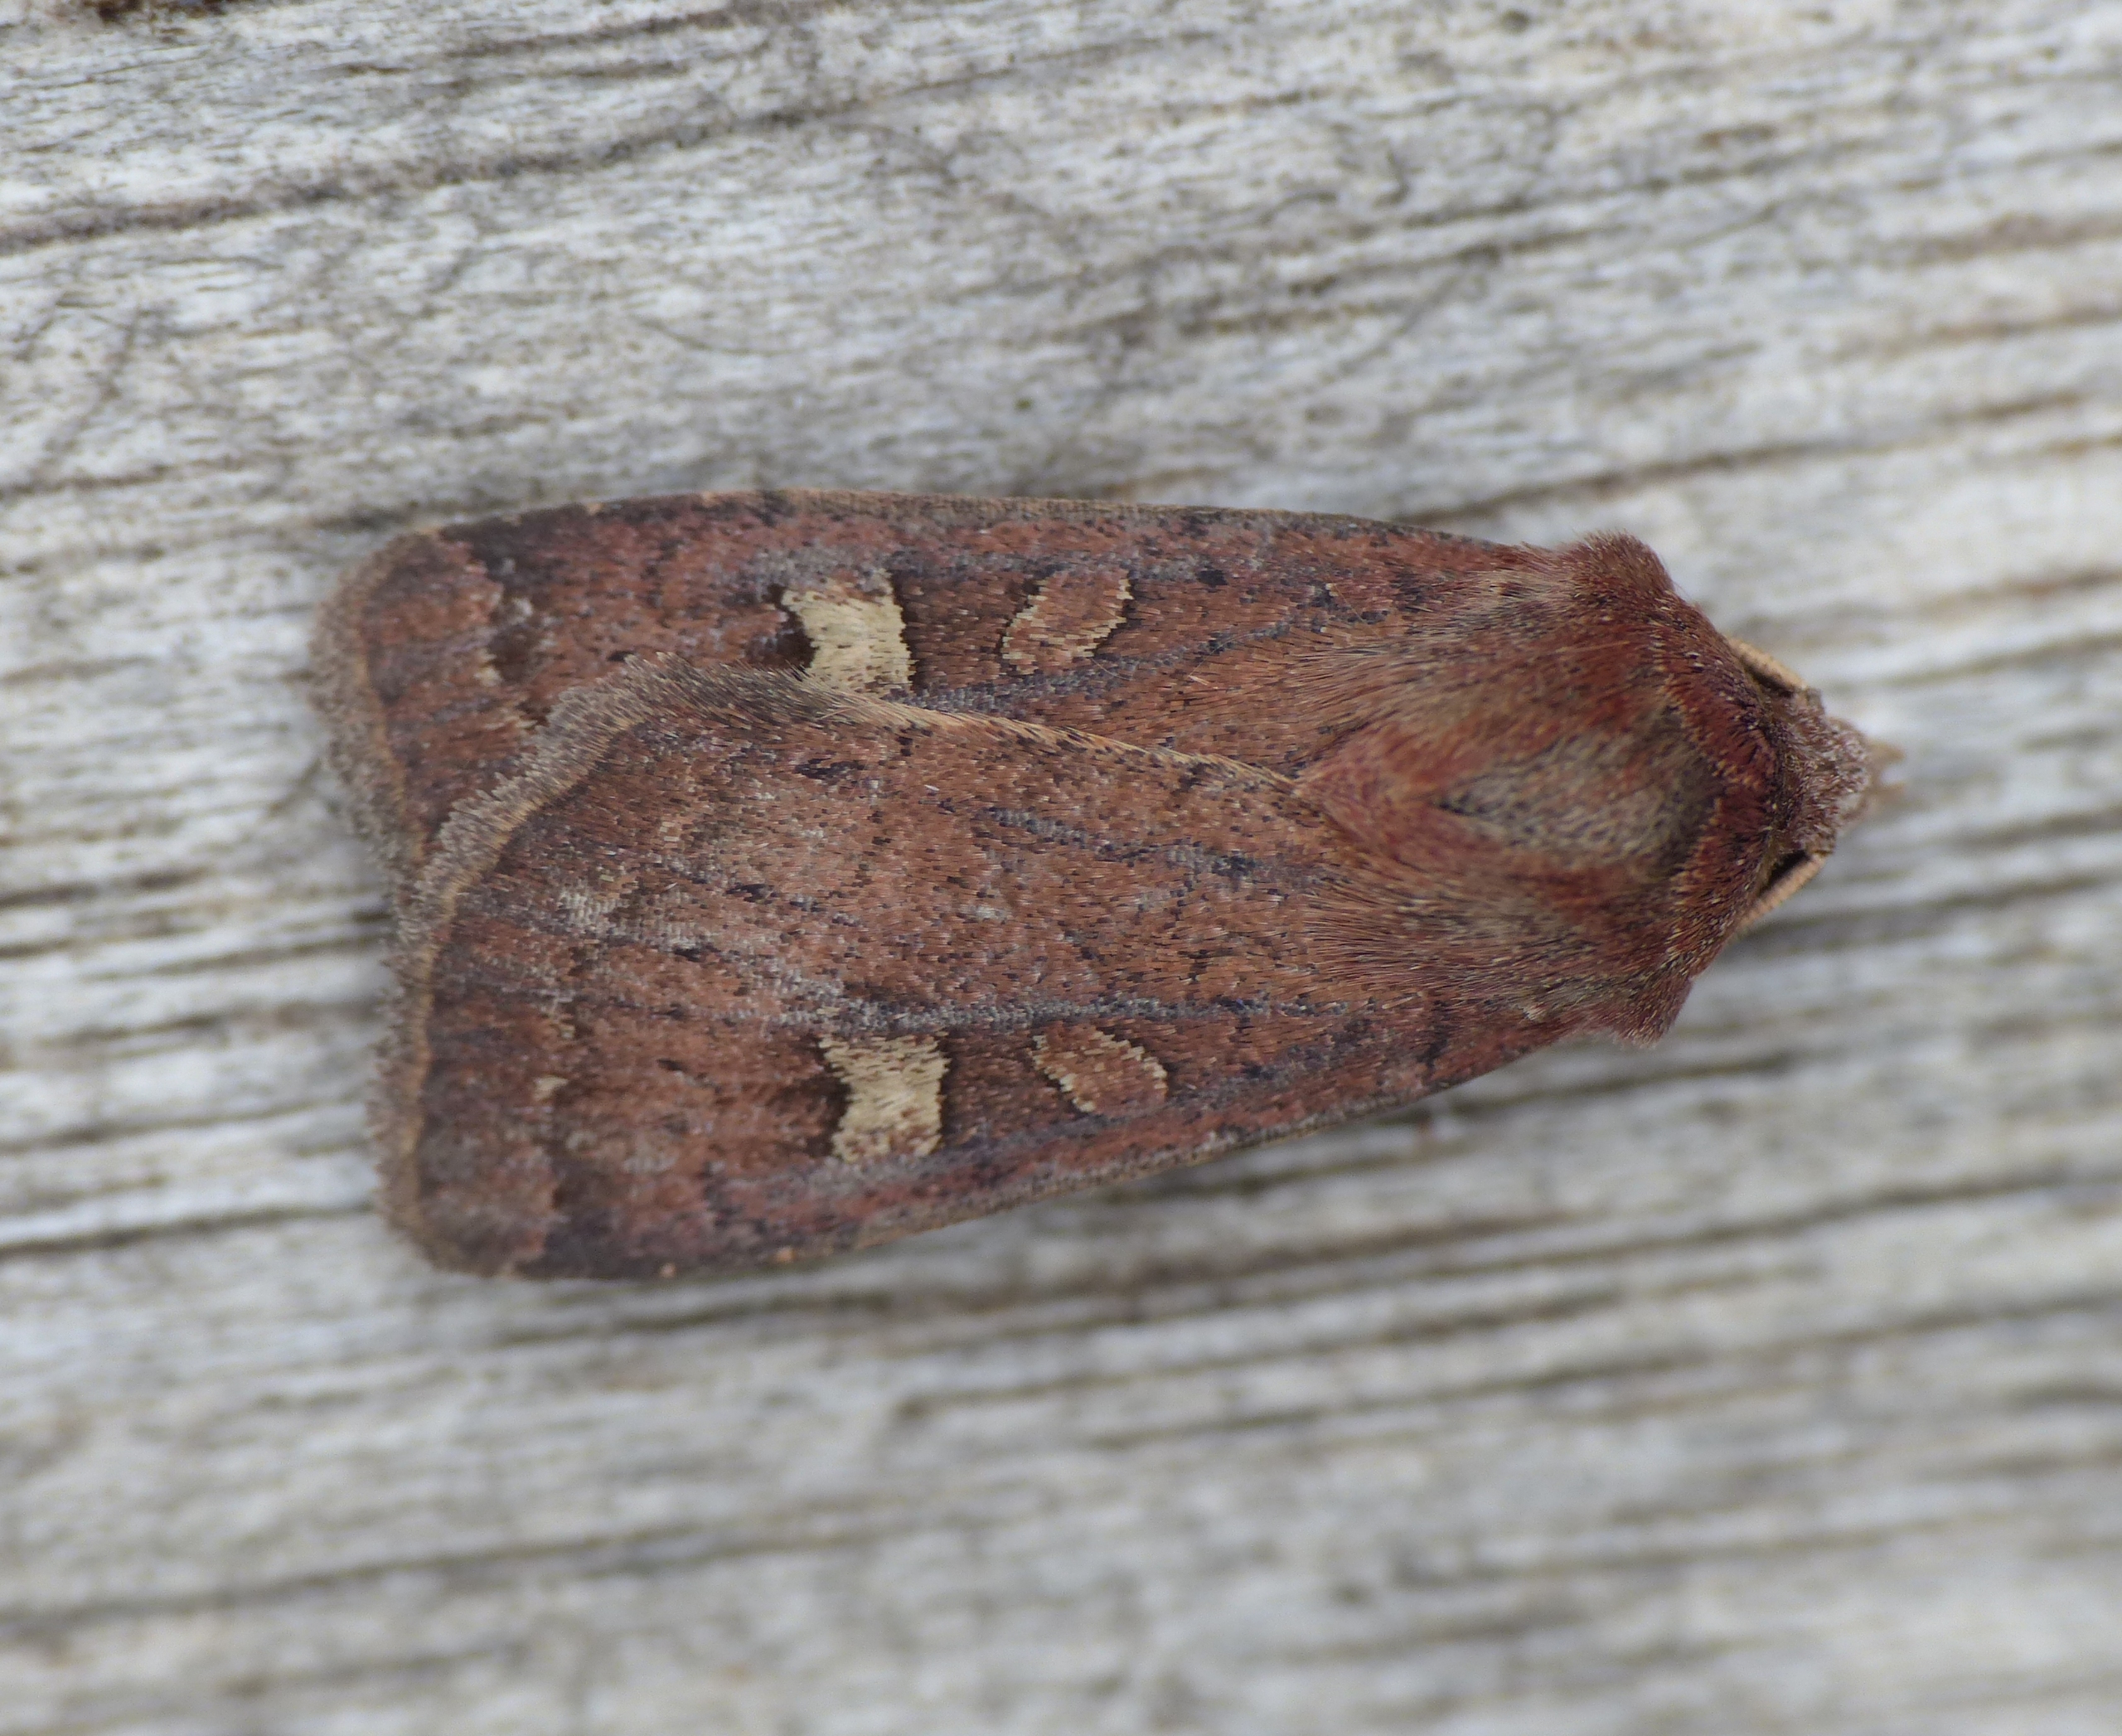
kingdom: Animalia
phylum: Arthropoda
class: Insecta
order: Lepidoptera
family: Noctuidae
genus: Xestia
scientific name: Xestia xanthographa
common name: Gulmærket glansugle
